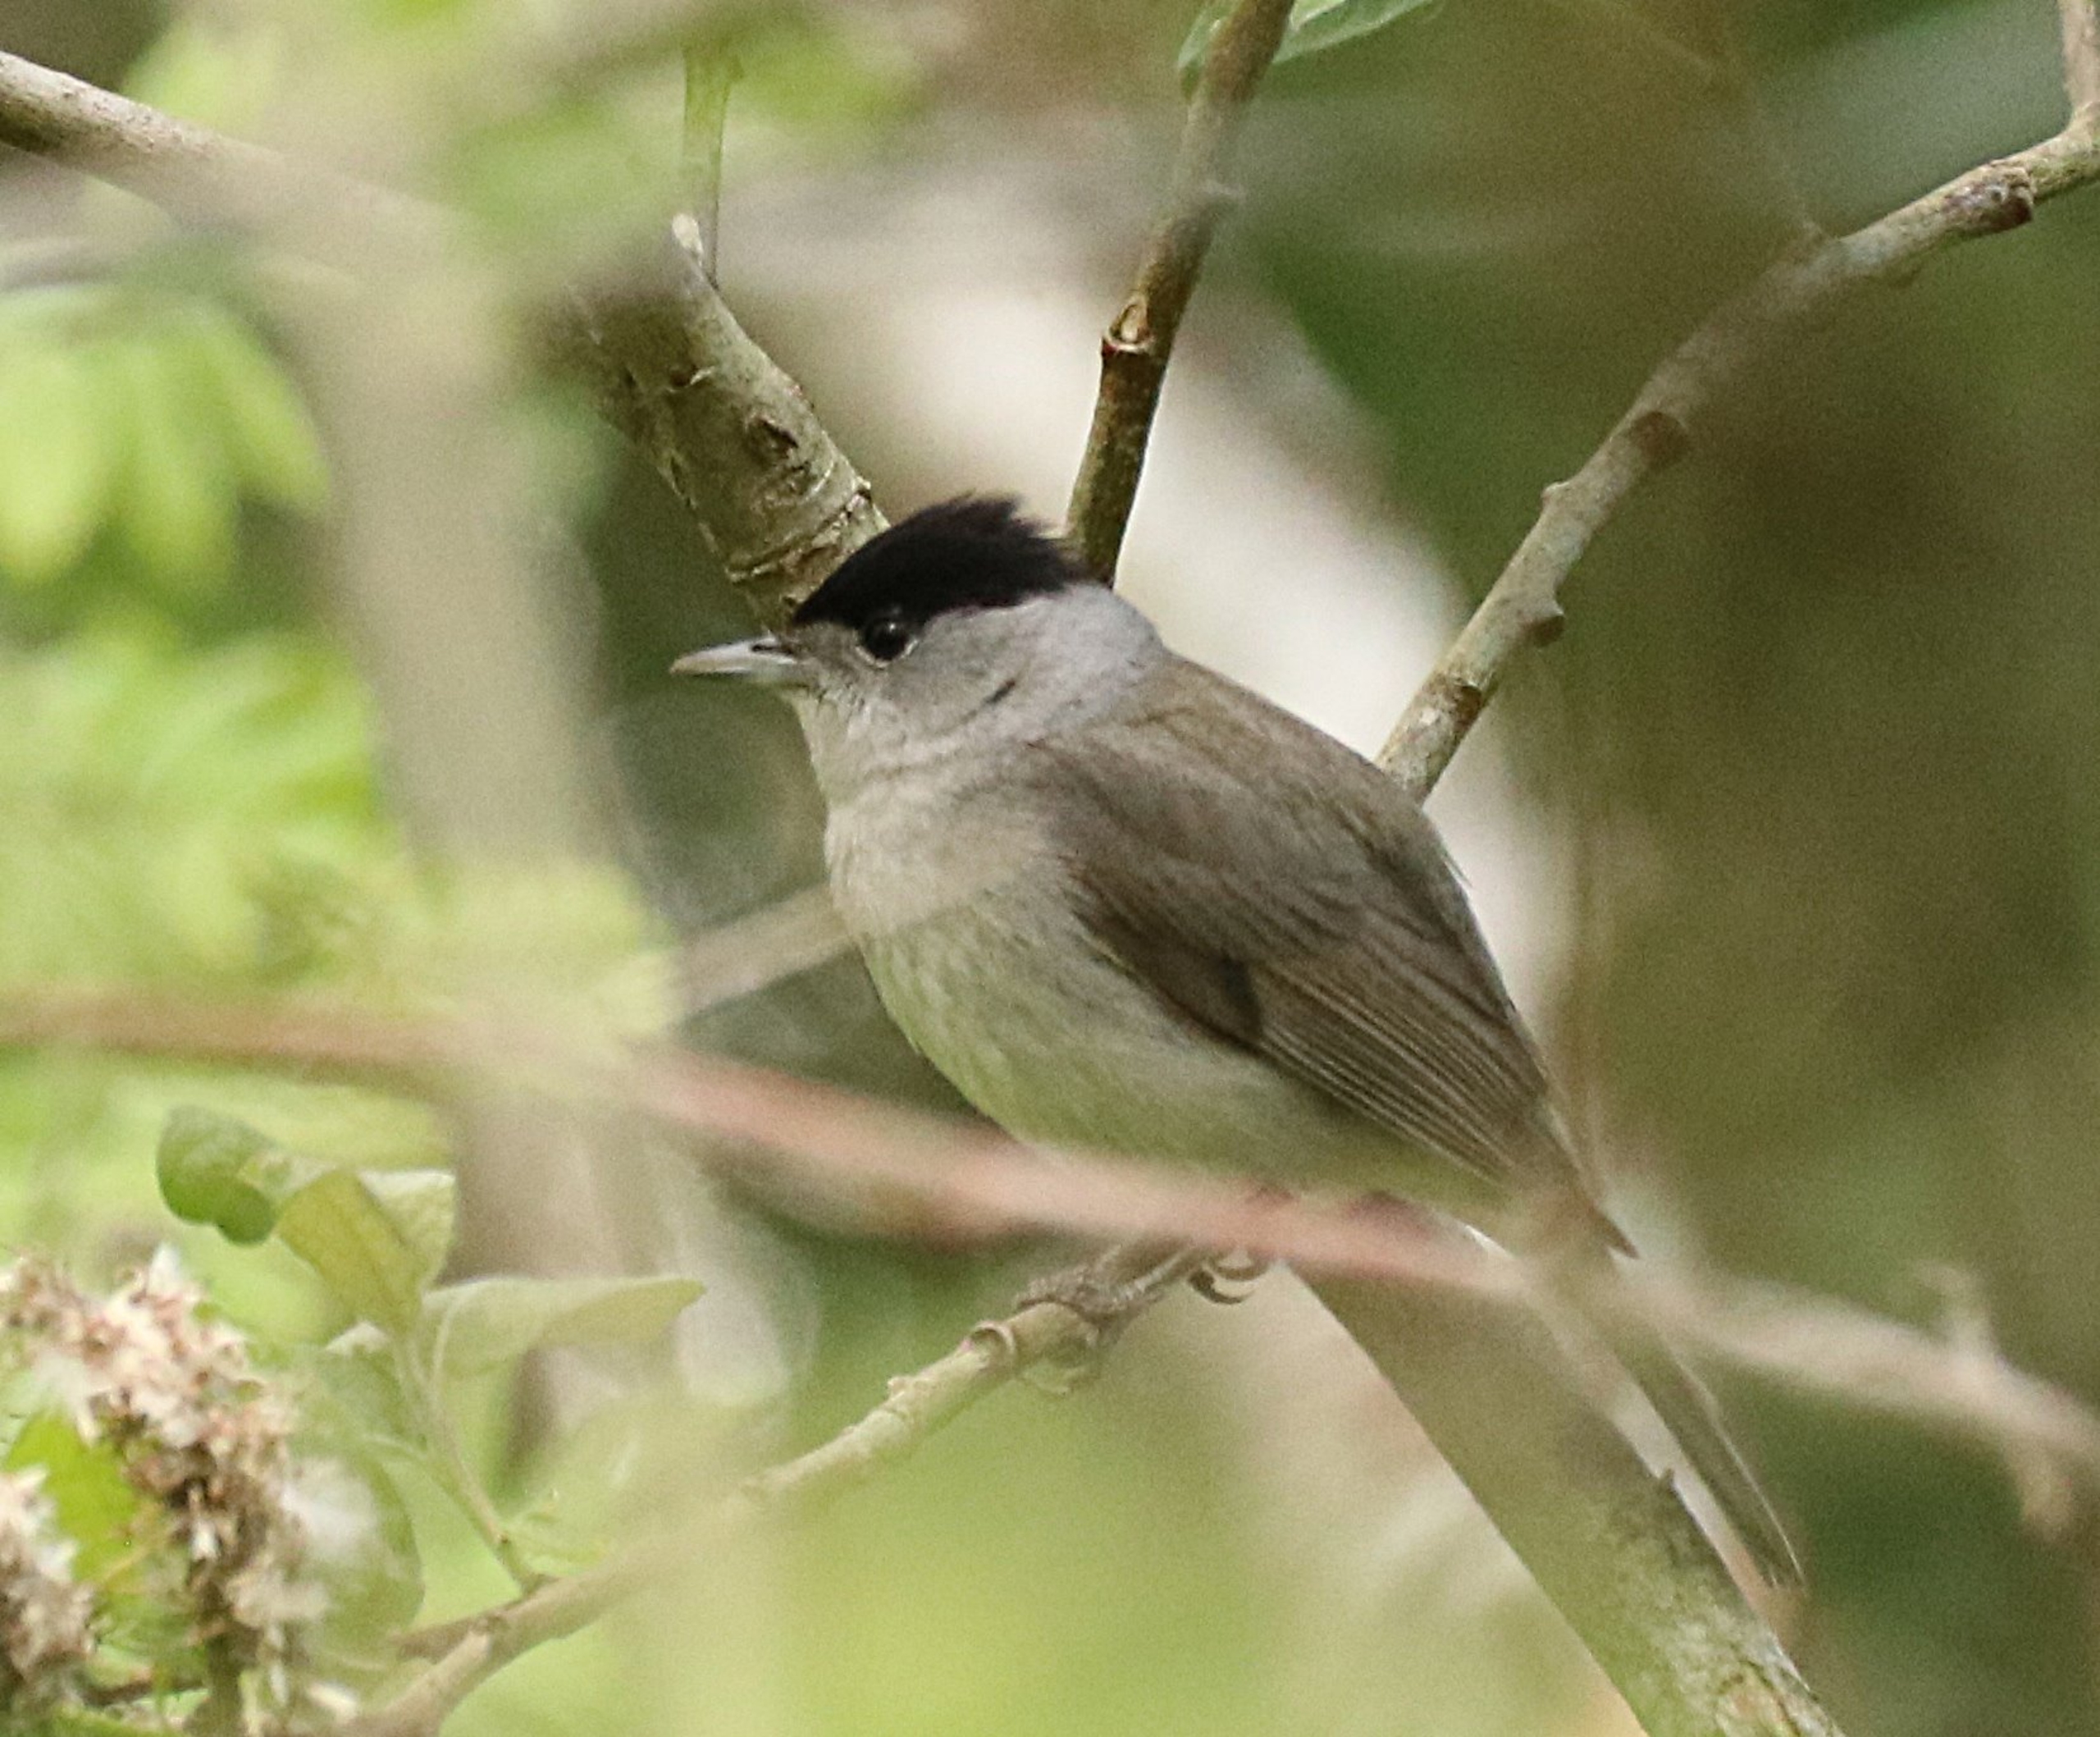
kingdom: Animalia
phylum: Chordata
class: Aves
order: Passeriformes
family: Sylviidae
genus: Sylvia
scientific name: Sylvia atricapilla
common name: Munk
